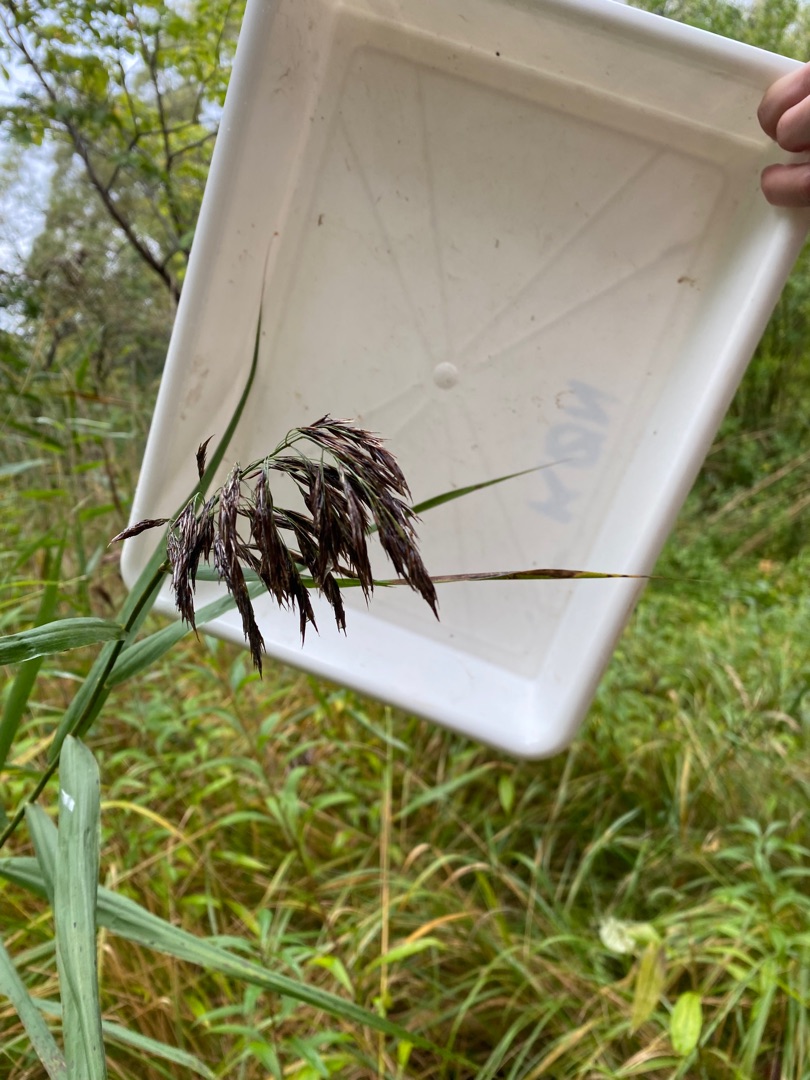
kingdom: Plantae
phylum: Tracheophyta
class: Liliopsida
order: Poales
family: Poaceae
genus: Phragmites
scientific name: Phragmites australis
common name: Tagrør
